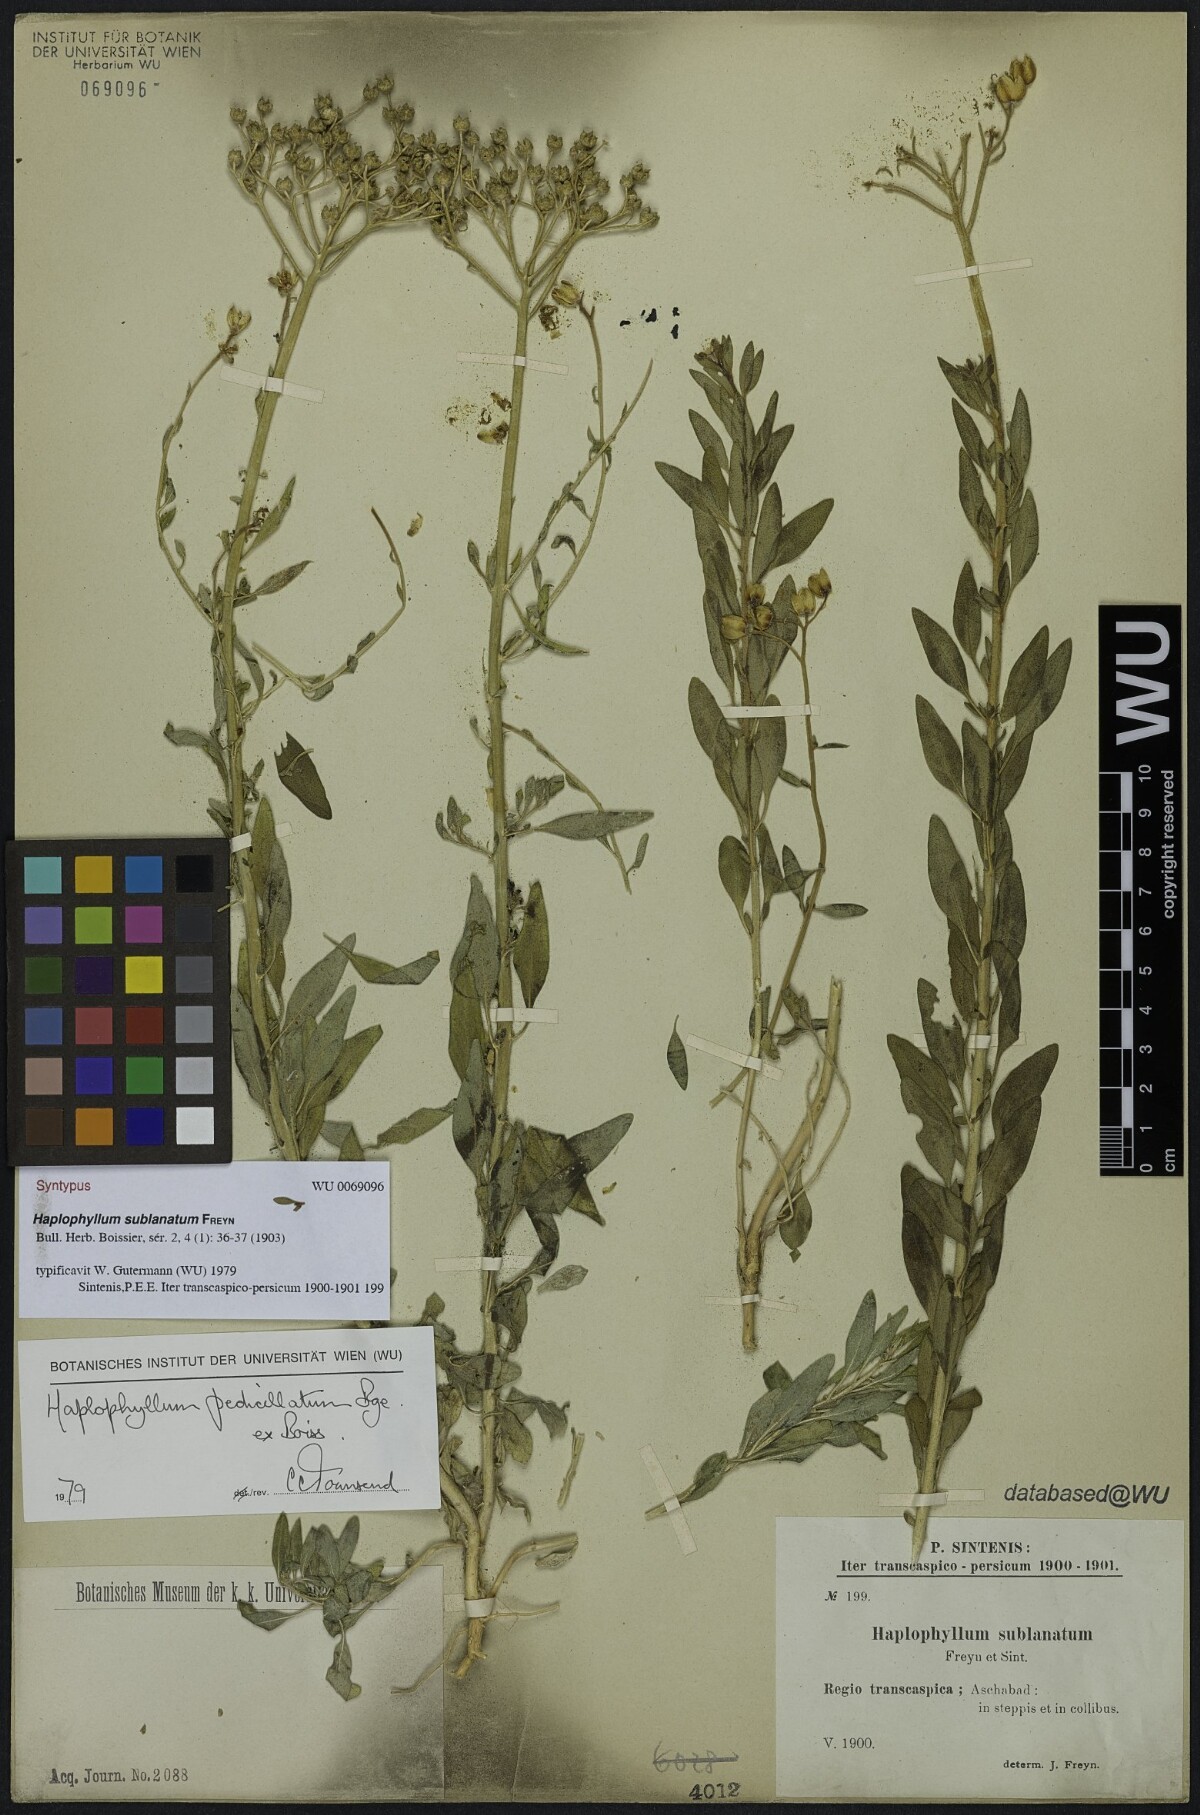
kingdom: Plantae
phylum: Tracheophyta
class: Magnoliopsida
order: Sapindales
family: Rutaceae
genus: Haplophyllum
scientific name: Haplophyllum pedicellatum
